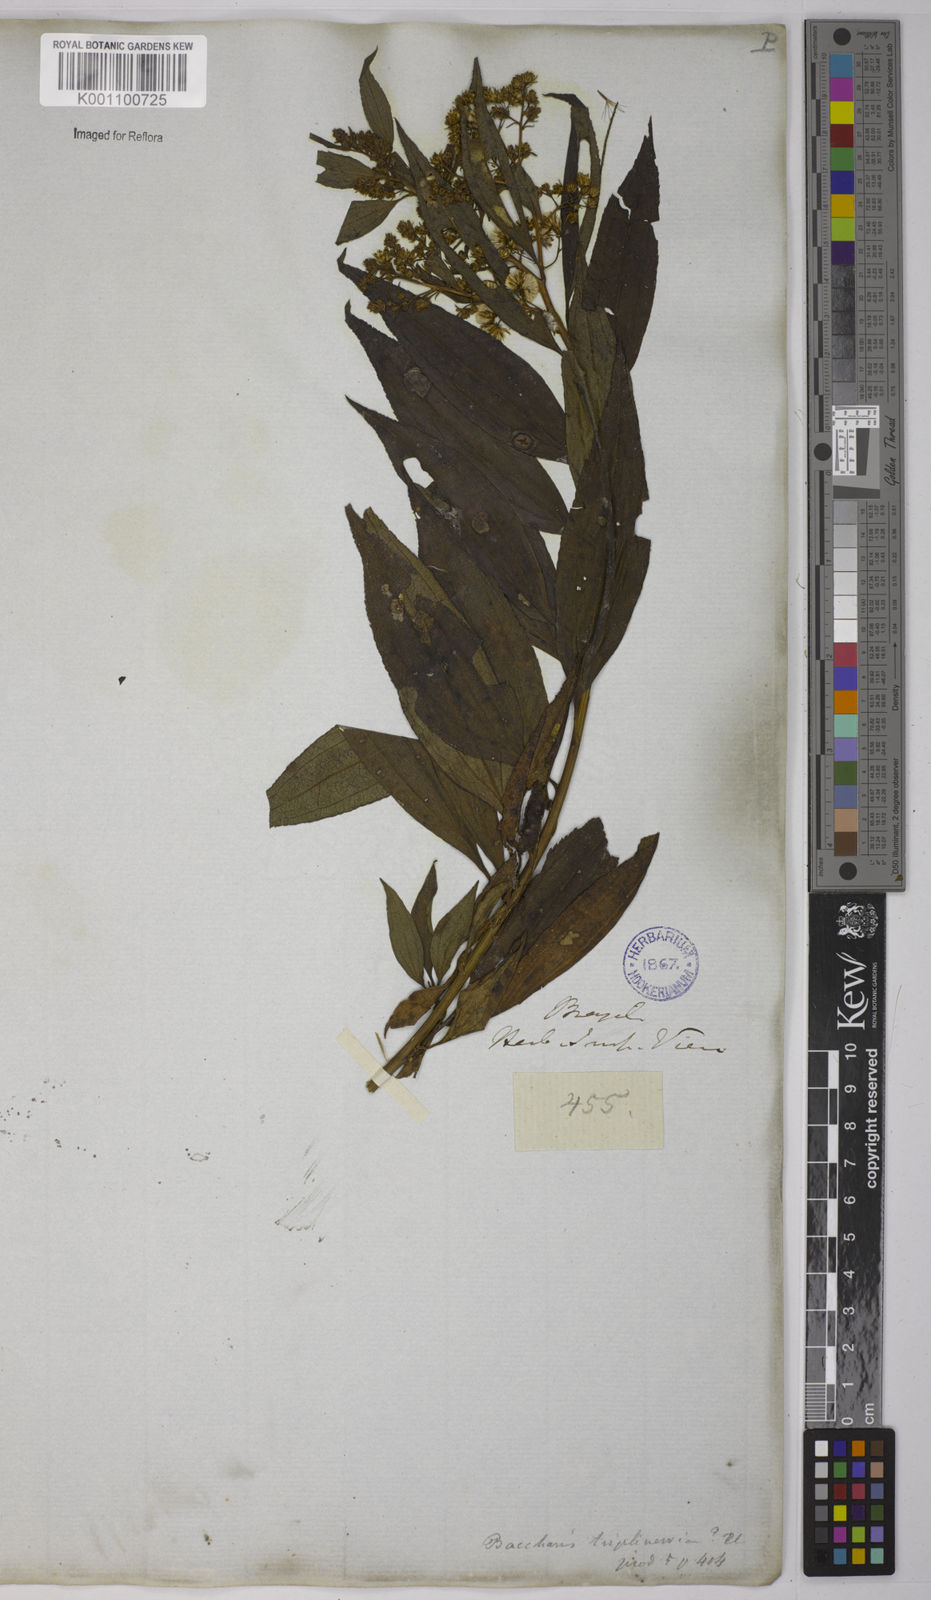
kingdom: Plantae
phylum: Tracheophyta
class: Magnoliopsida
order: Asterales
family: Asteraceae
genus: Baccharis
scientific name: Baccharis oxyodonta
